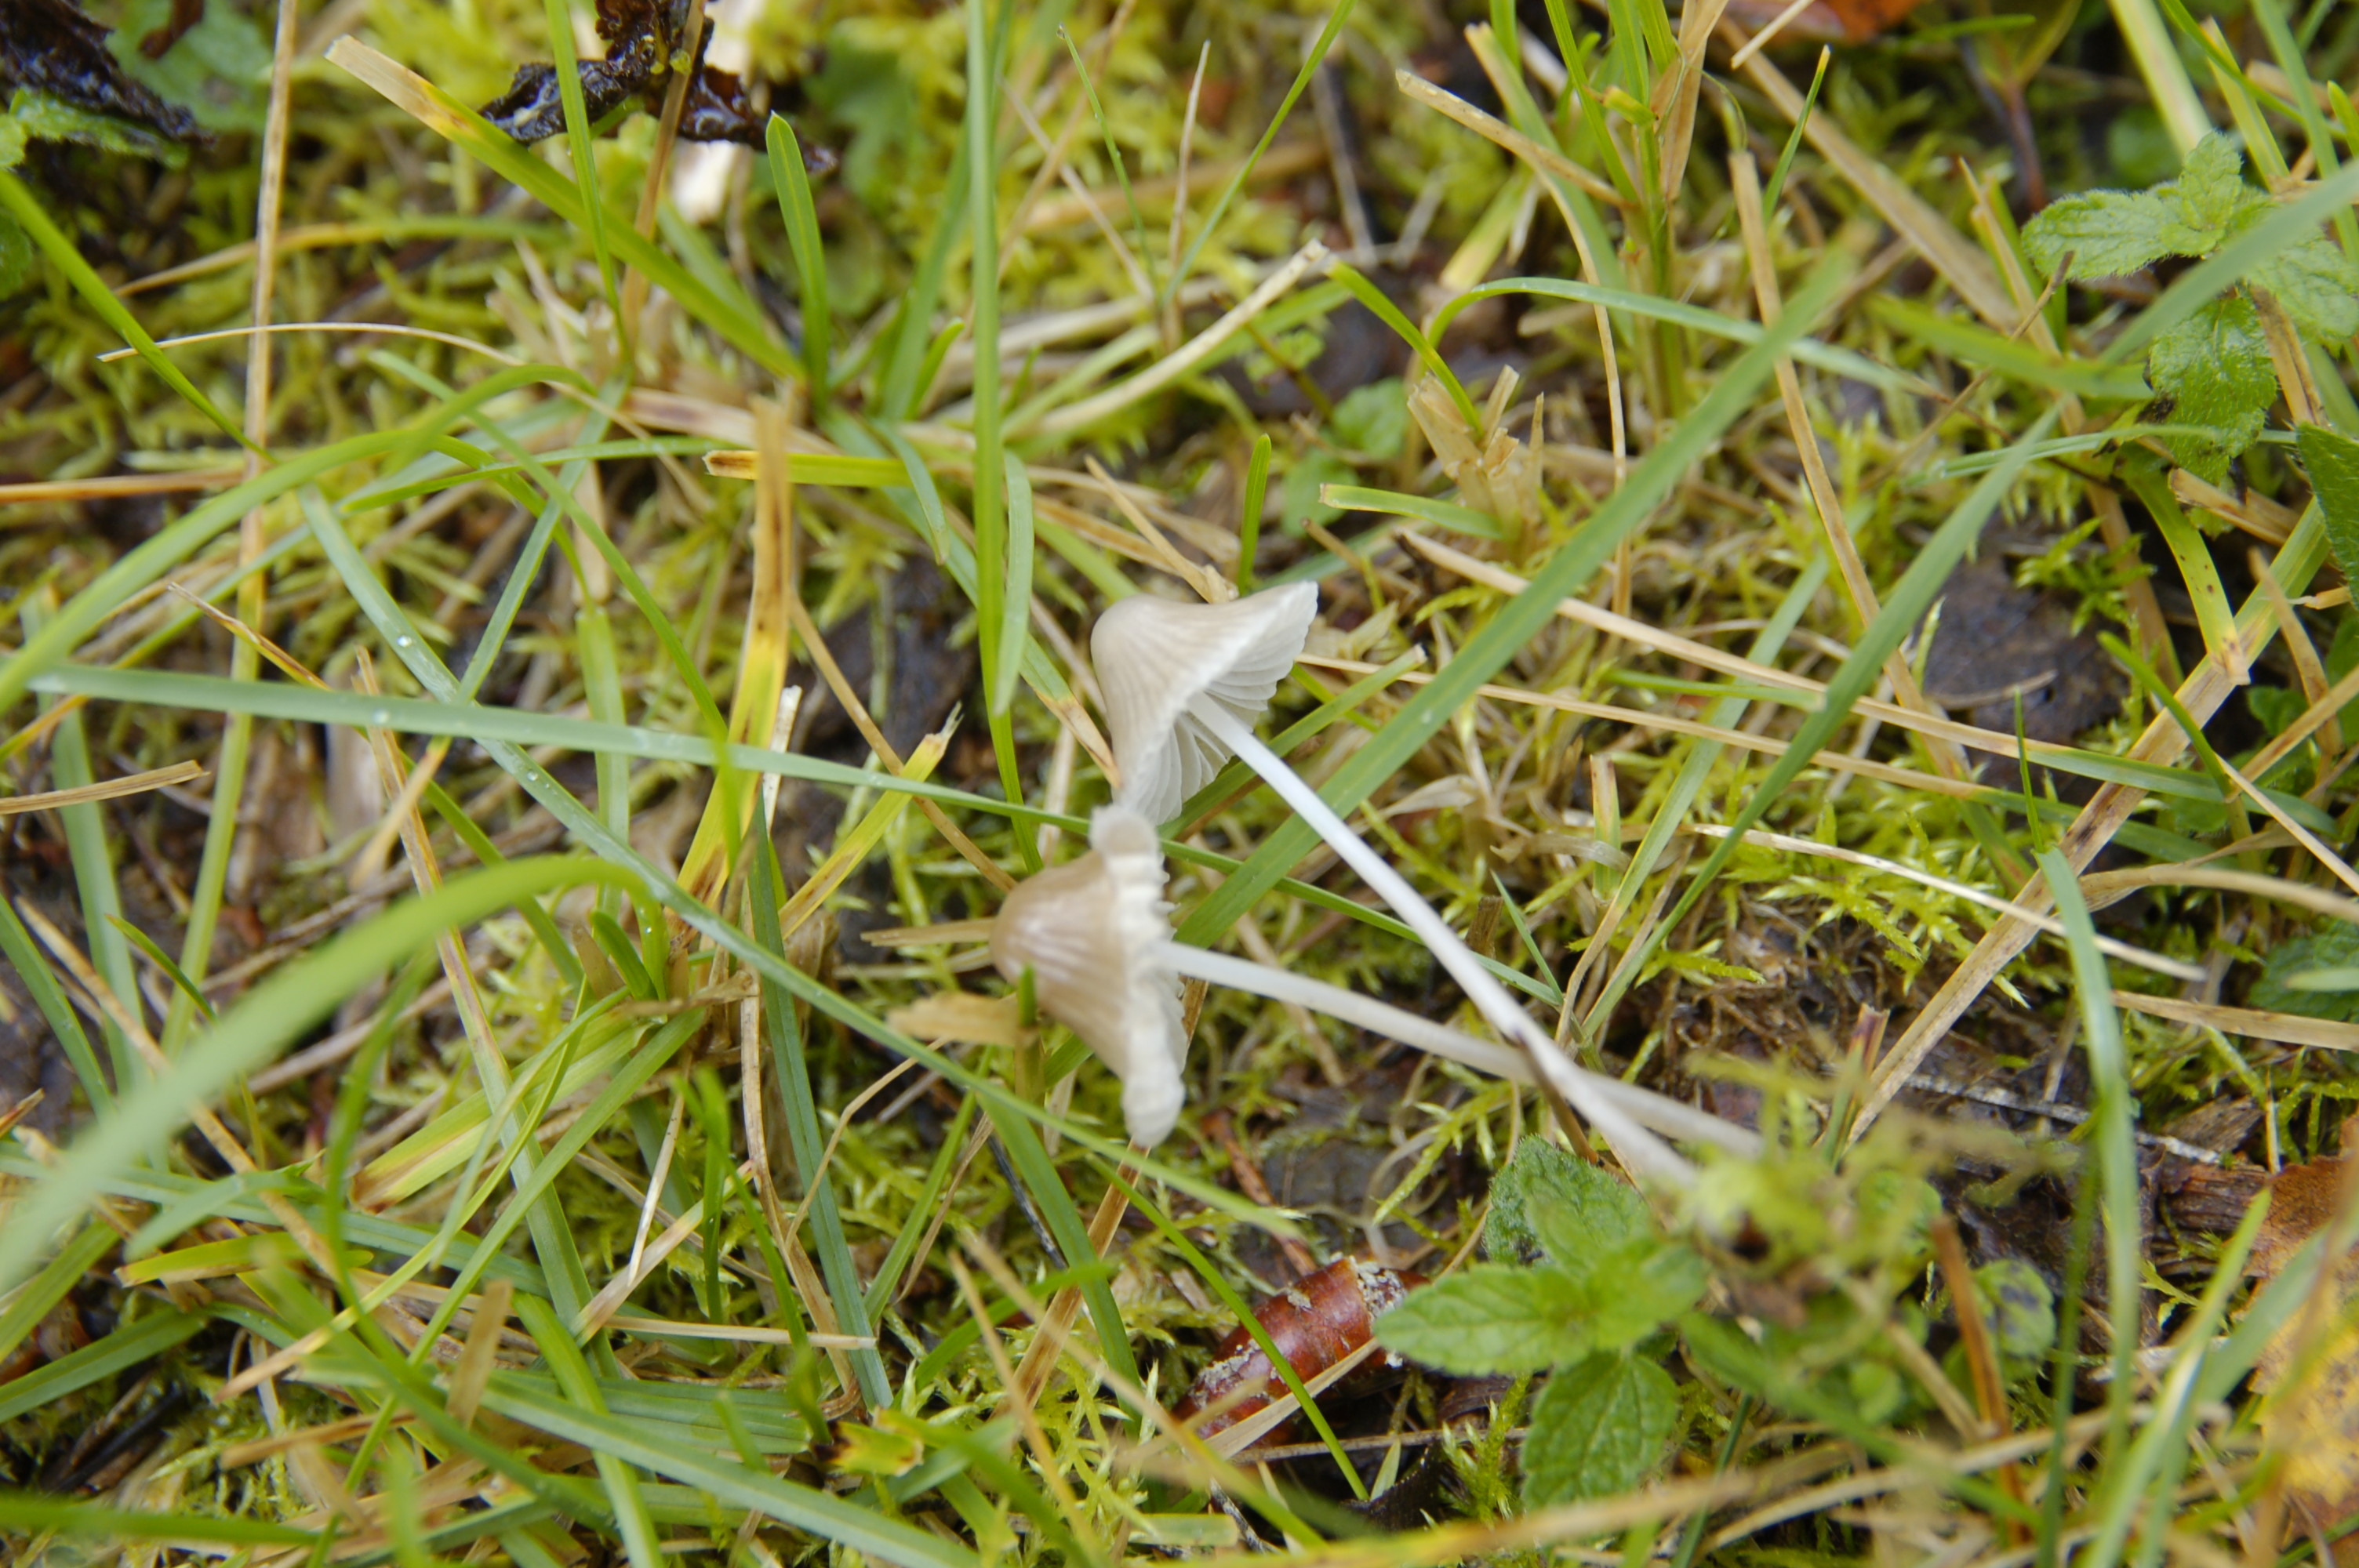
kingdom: Fungi
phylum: Basidiomycota
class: Agaricomycetes
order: Agaricales
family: Mycenaceae
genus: Mycena
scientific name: Mycena
